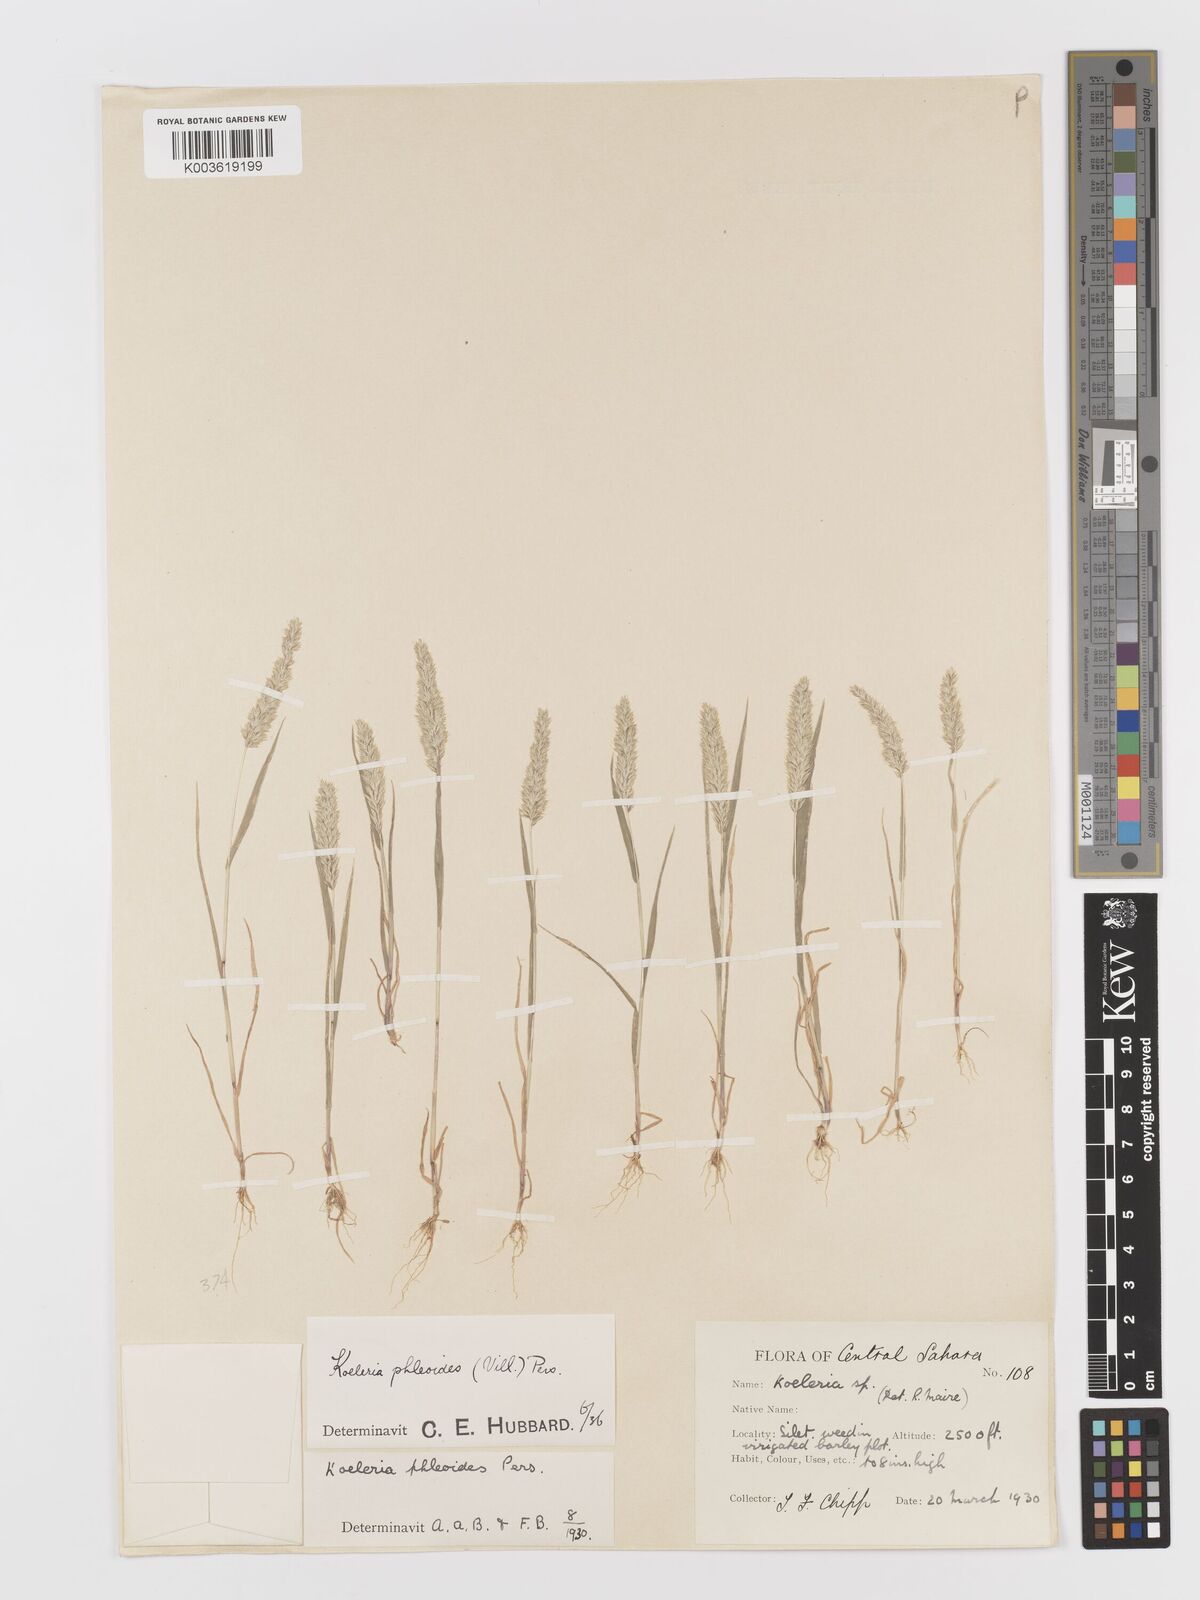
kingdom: Plantae
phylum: Tracheophyta
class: Liliopsida
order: Poales
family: Poaceae
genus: Rostraria
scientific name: Rostraria cristata
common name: Mediterranean hair-grass
